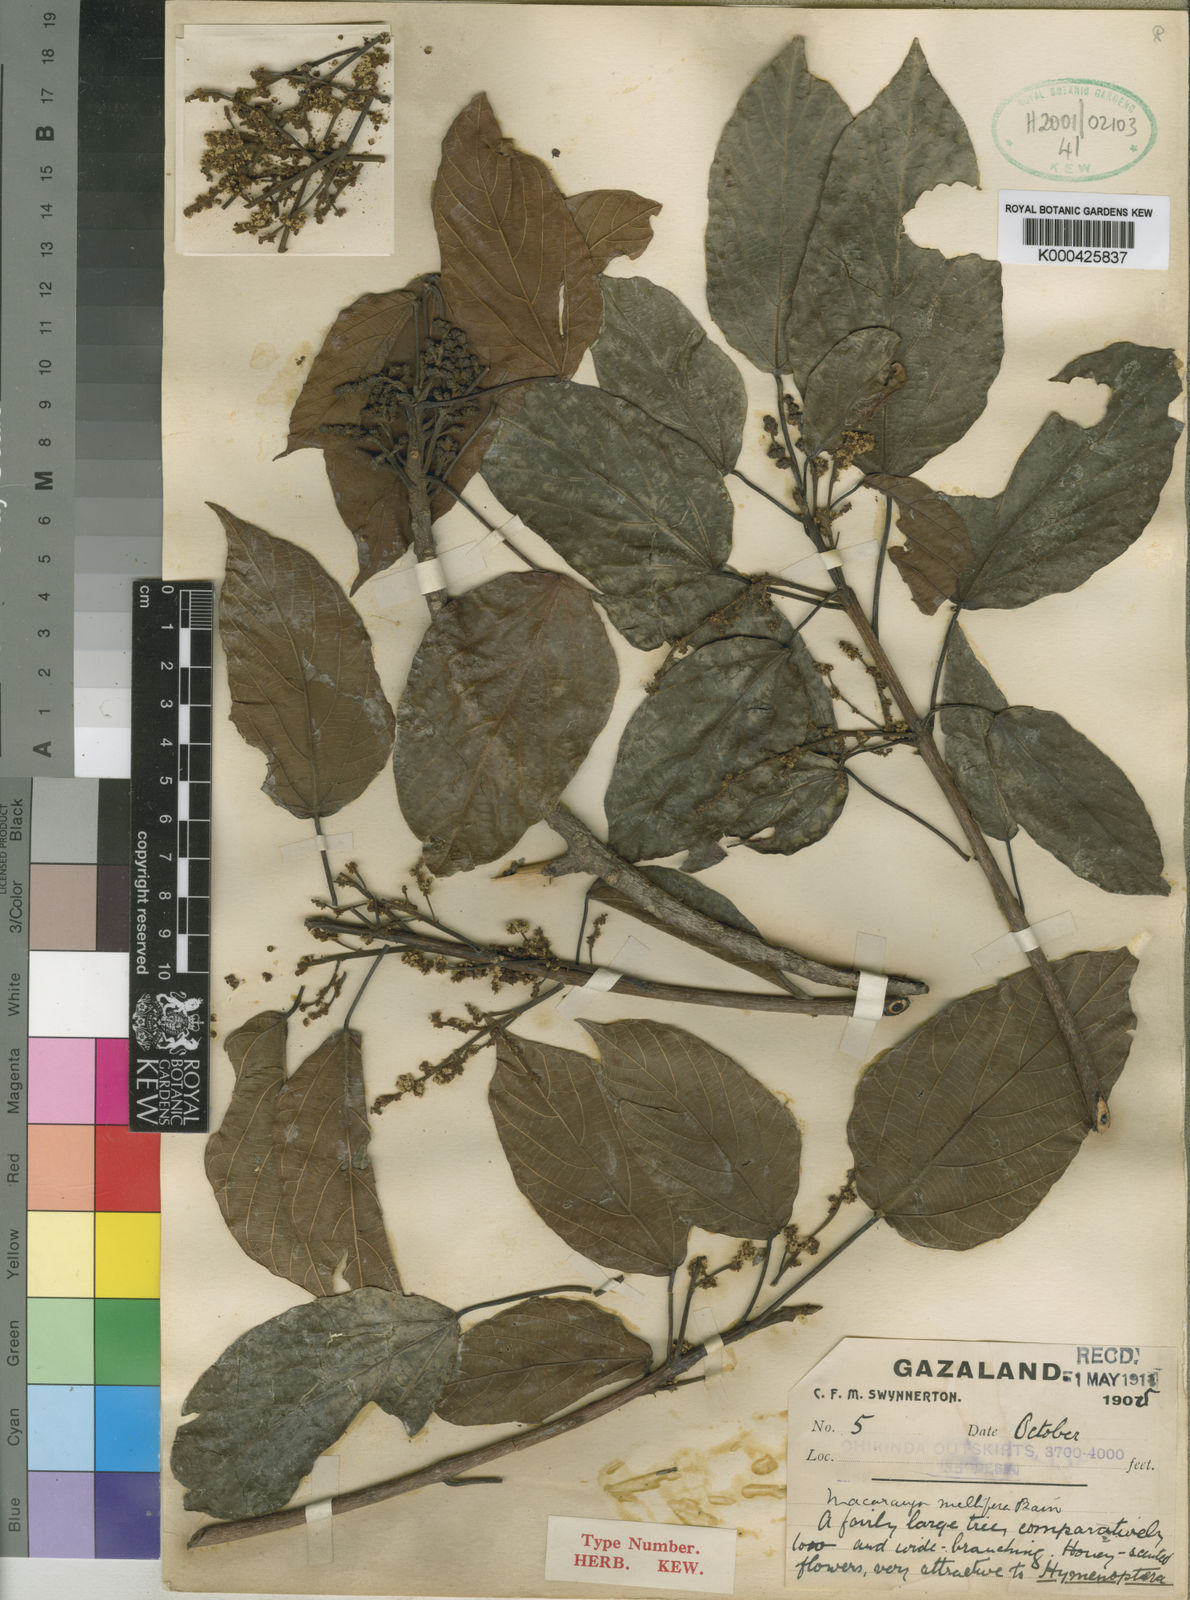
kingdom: Plantae
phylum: Tracheophyta
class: Magnoliopsida
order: Malpighiales
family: Euphorbiaceae
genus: Macaranga
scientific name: Macaranga mellifera
